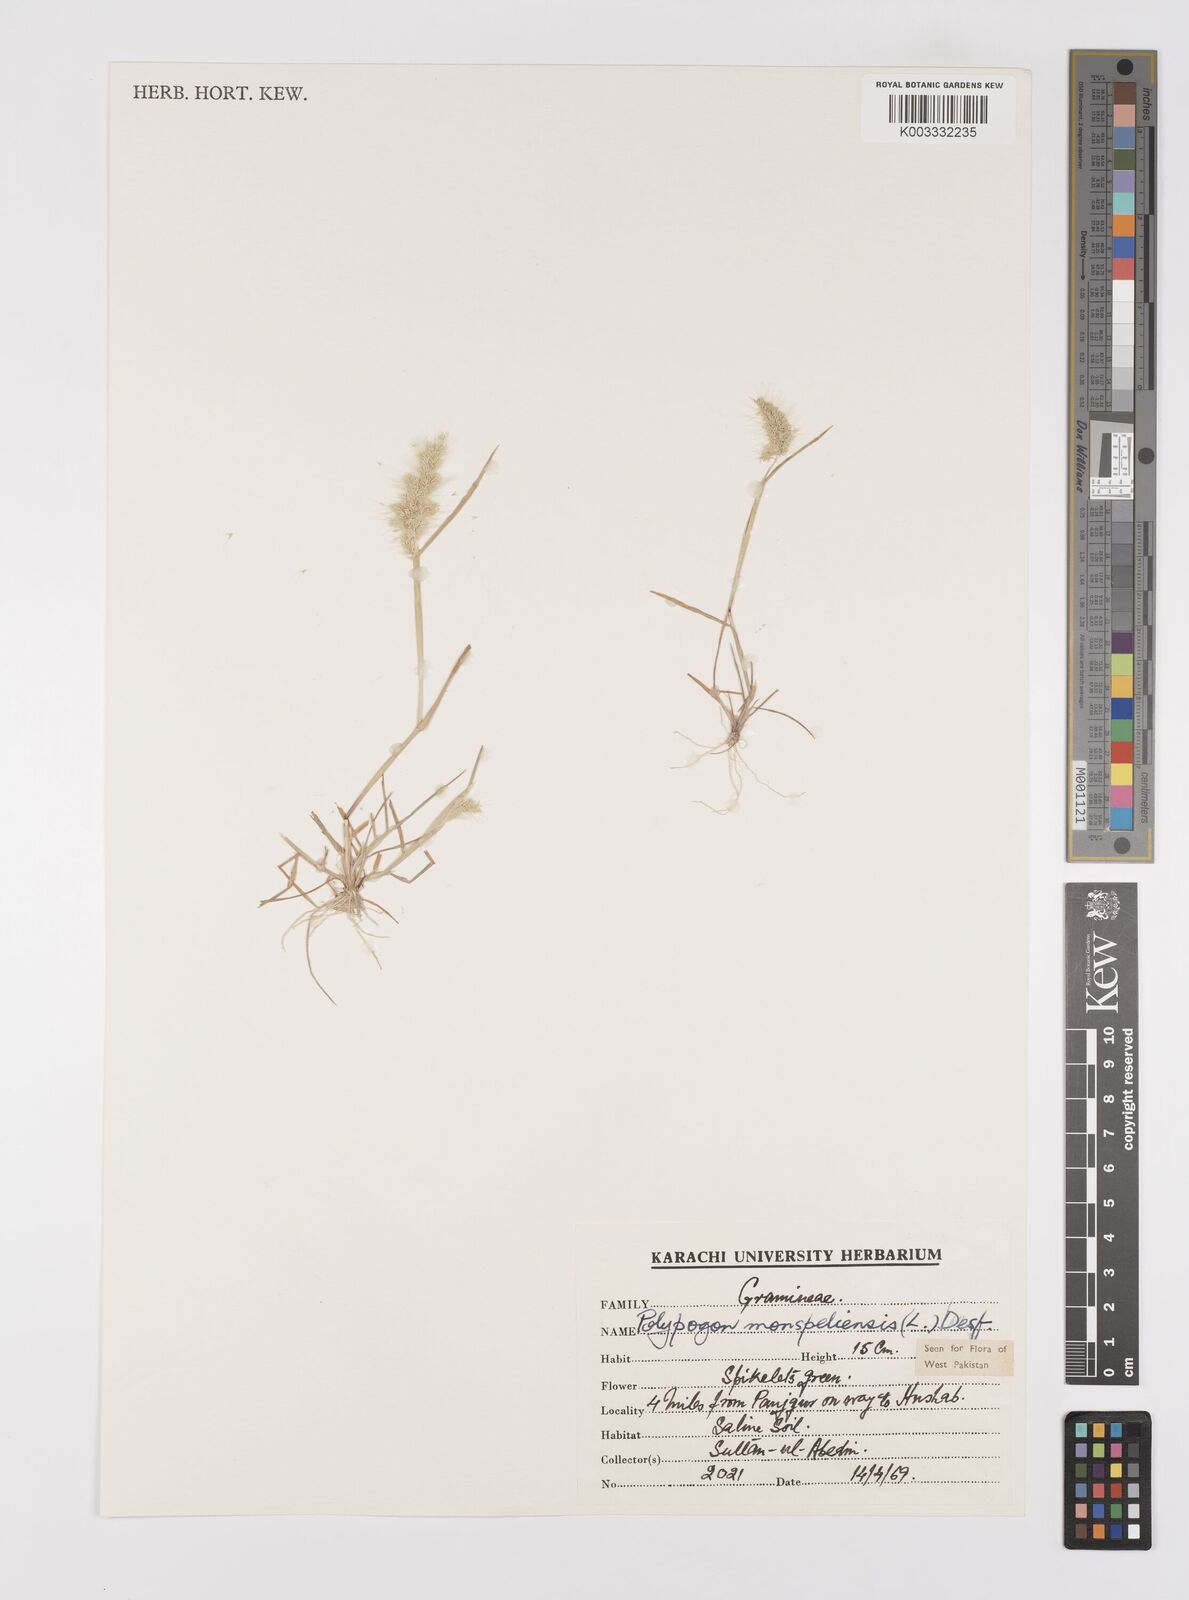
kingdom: Plantae
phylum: Tracheophyta
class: Liliopsida
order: Poales
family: Poaceae
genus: Polypogon
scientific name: Polypogon monspeliensis
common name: Annual rabbitsfoot grass
